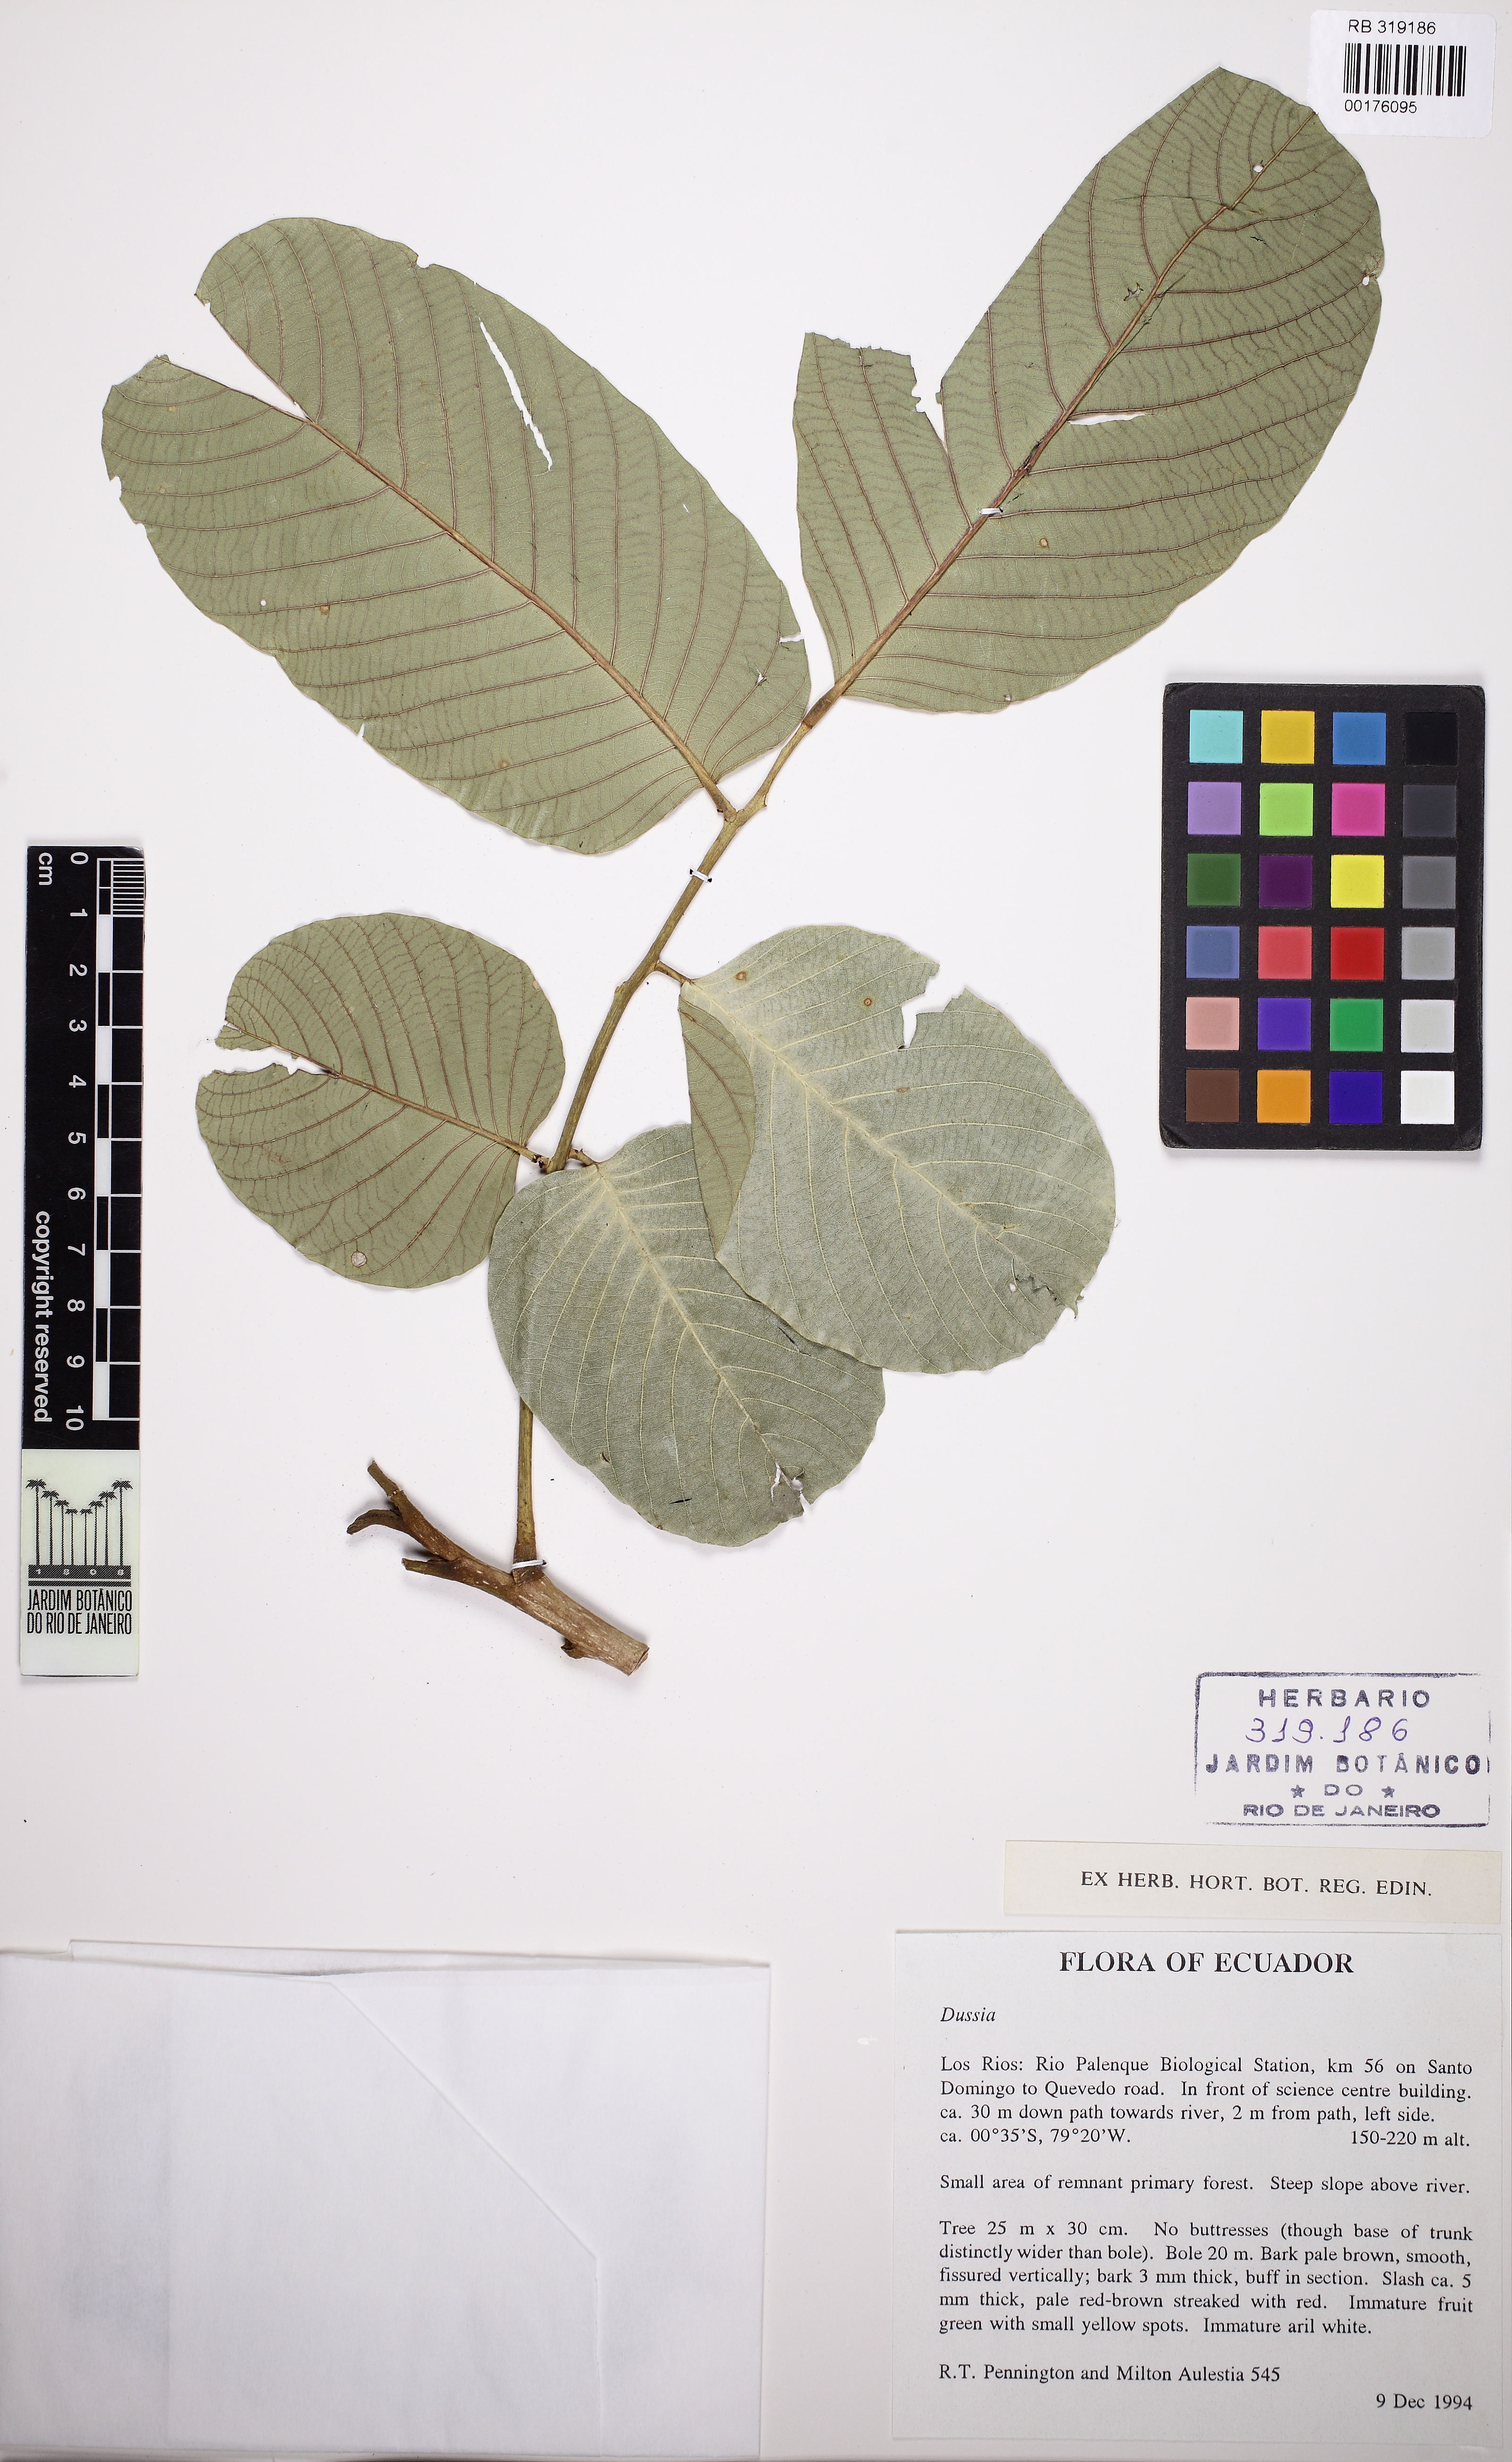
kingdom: Plantae
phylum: Tracheophyta
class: Magnoliopsida
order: Fabales
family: Fabaceae
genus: Dussia
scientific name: Dussia
